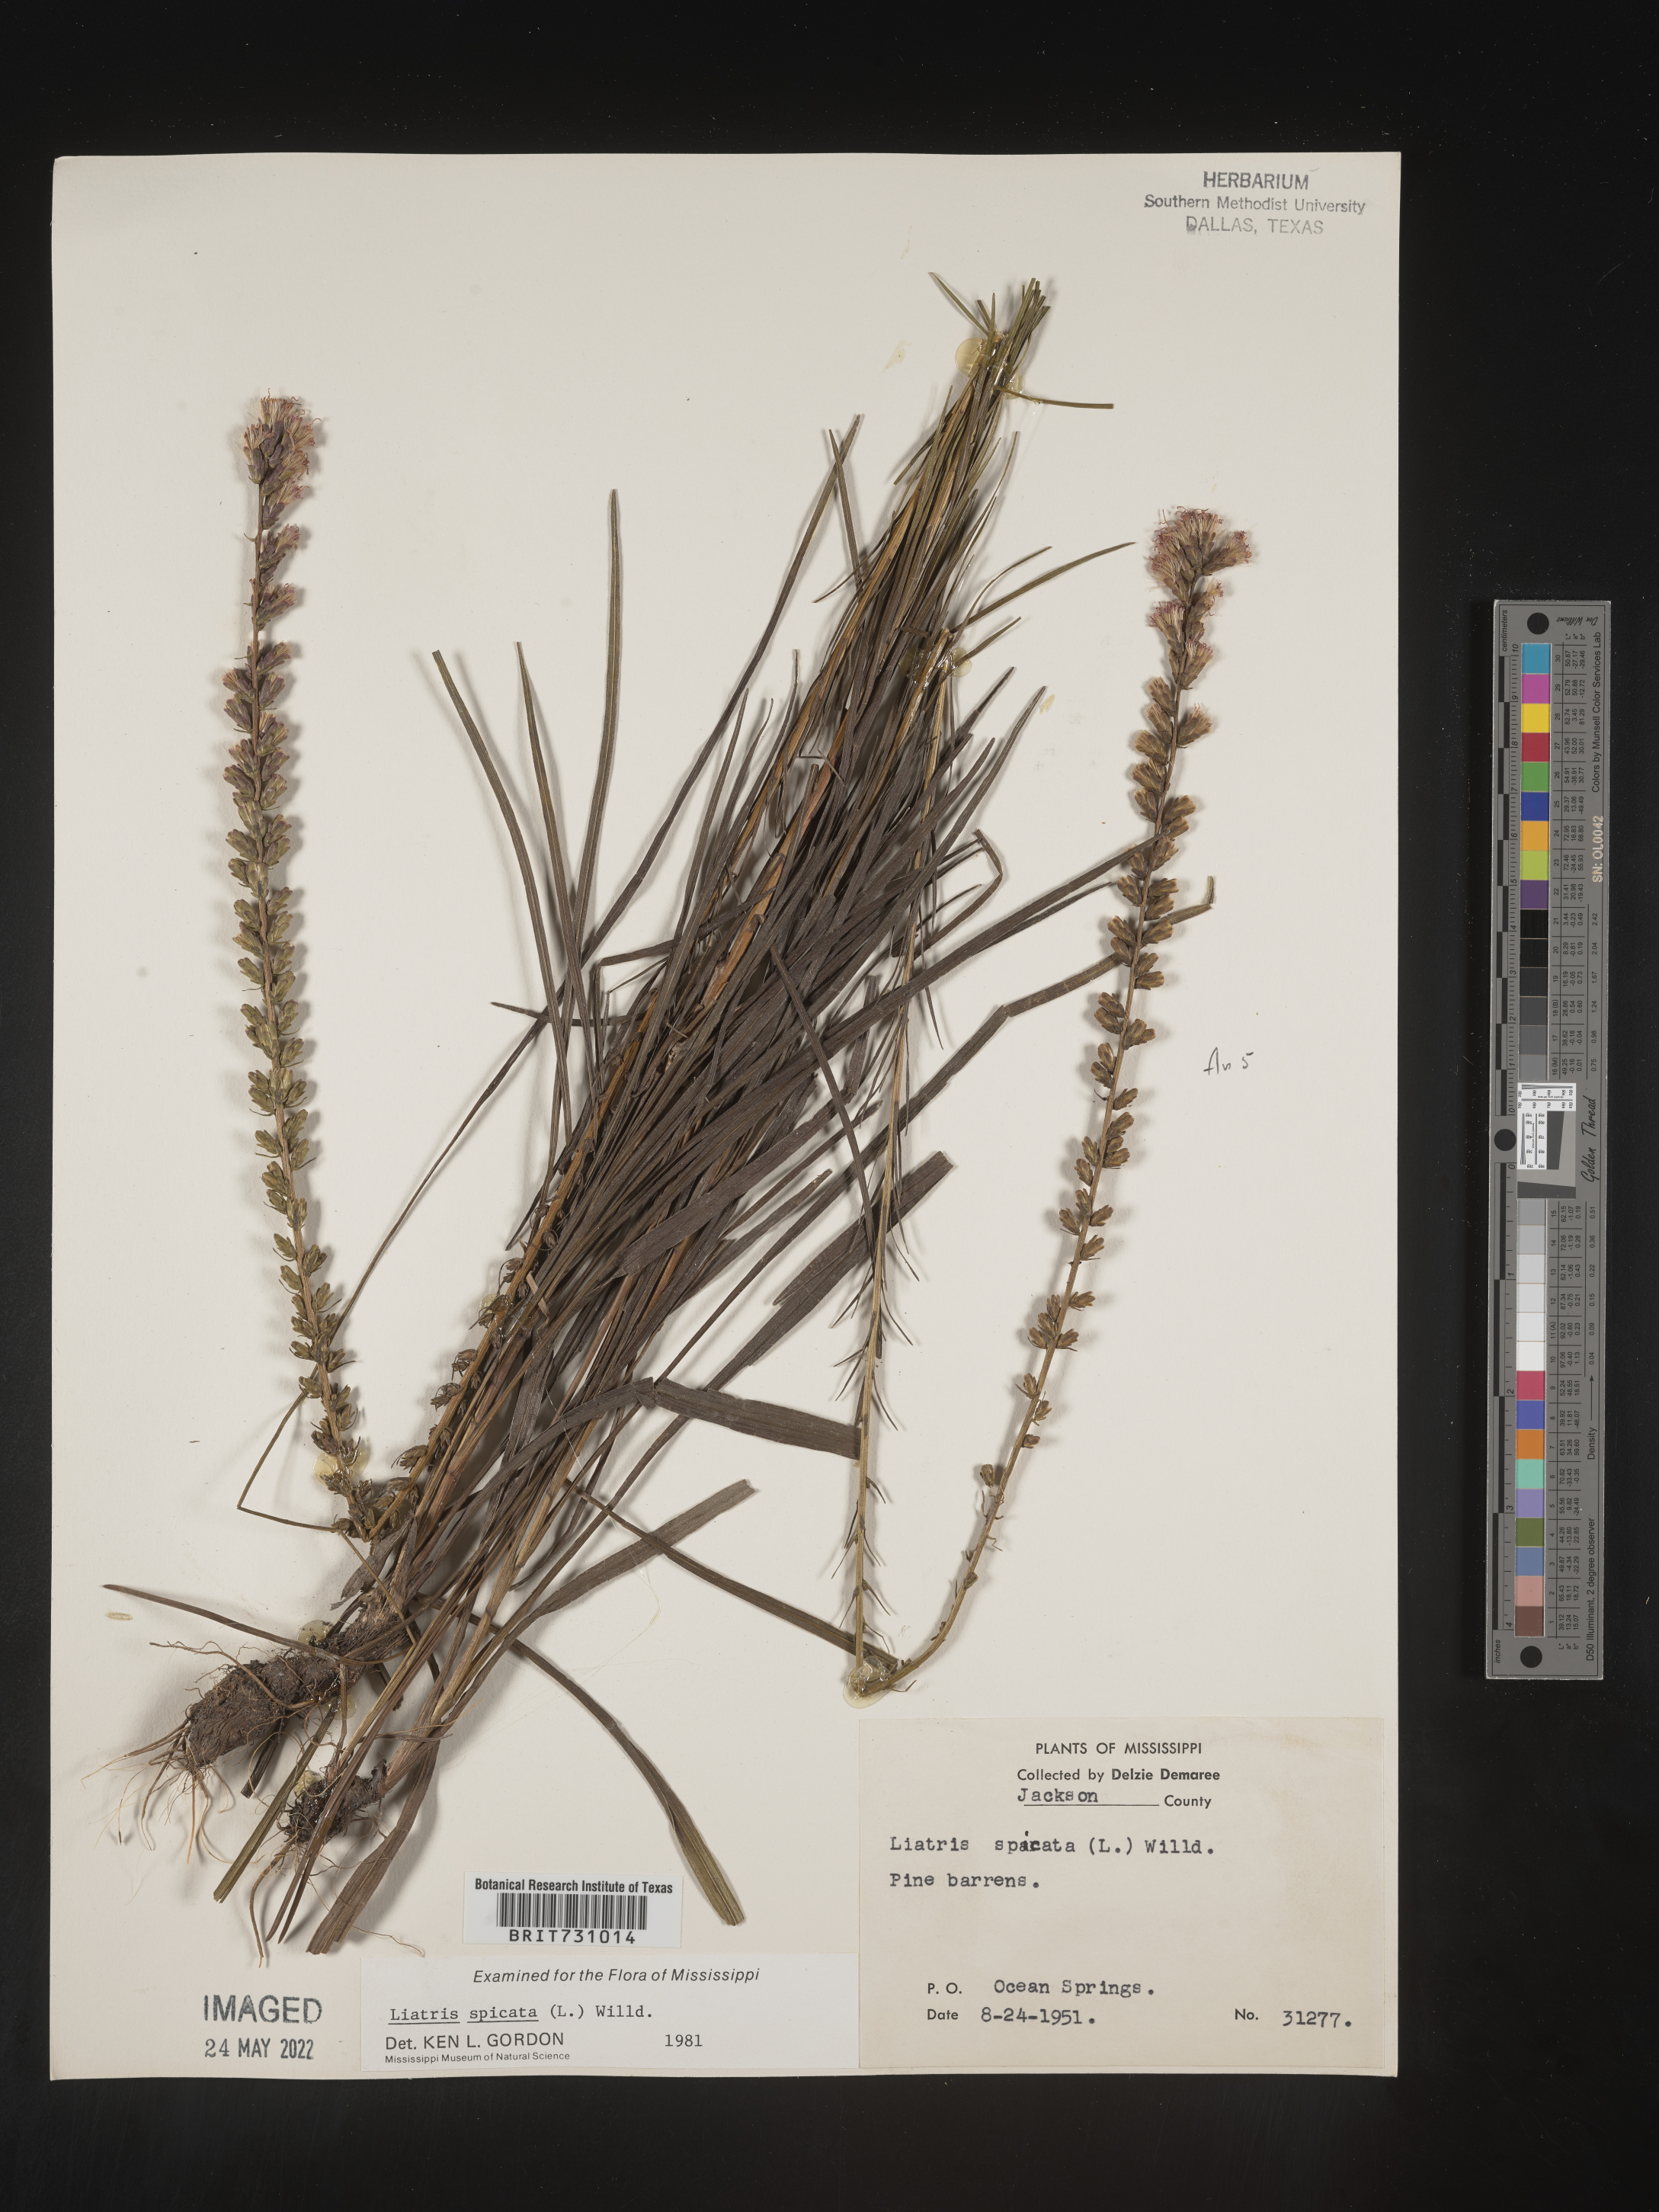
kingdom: Plantae
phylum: Tracheophyta
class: Magnoliopsida
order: Asterales
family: Asteraceae
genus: Liatris
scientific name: Liatris spicata
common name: Florist gayfeather
